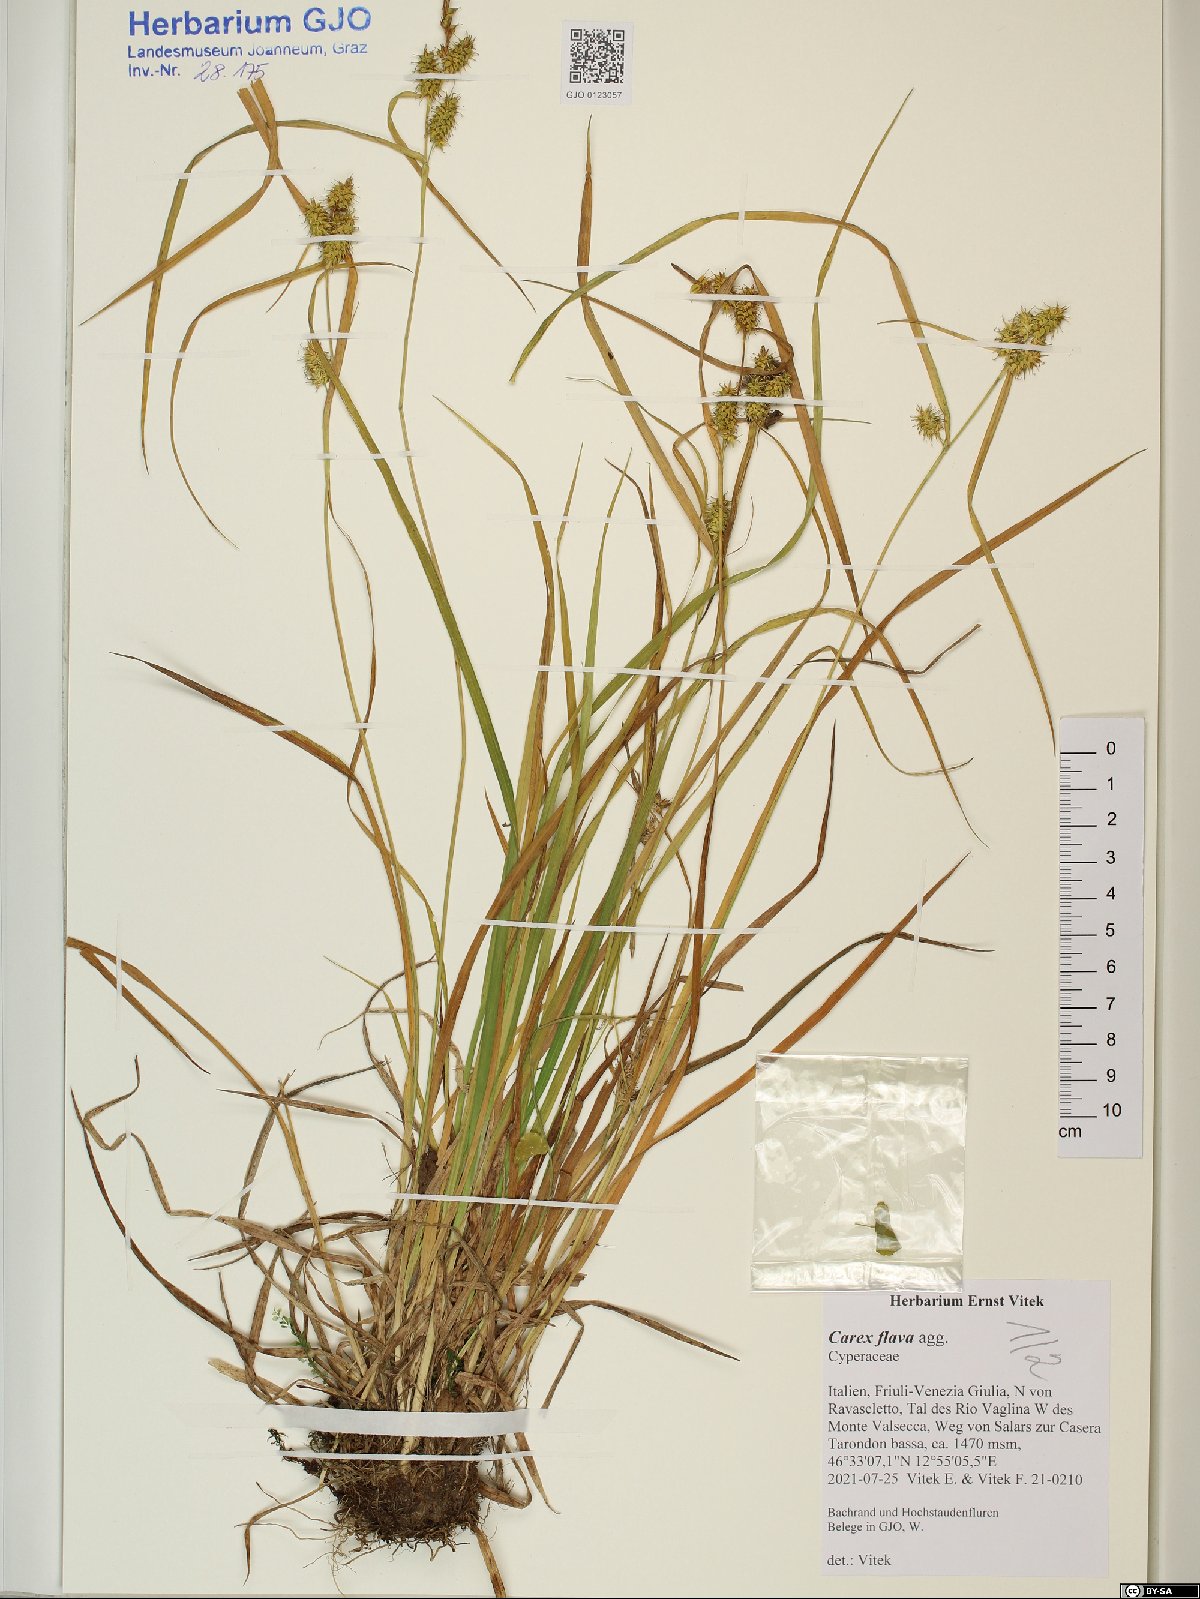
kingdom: Plantae
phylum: Tracheophyta
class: Liliopsida
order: Poales
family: Cyperaceae
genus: Carex
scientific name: Carex flava
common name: Large yellow-sedge
